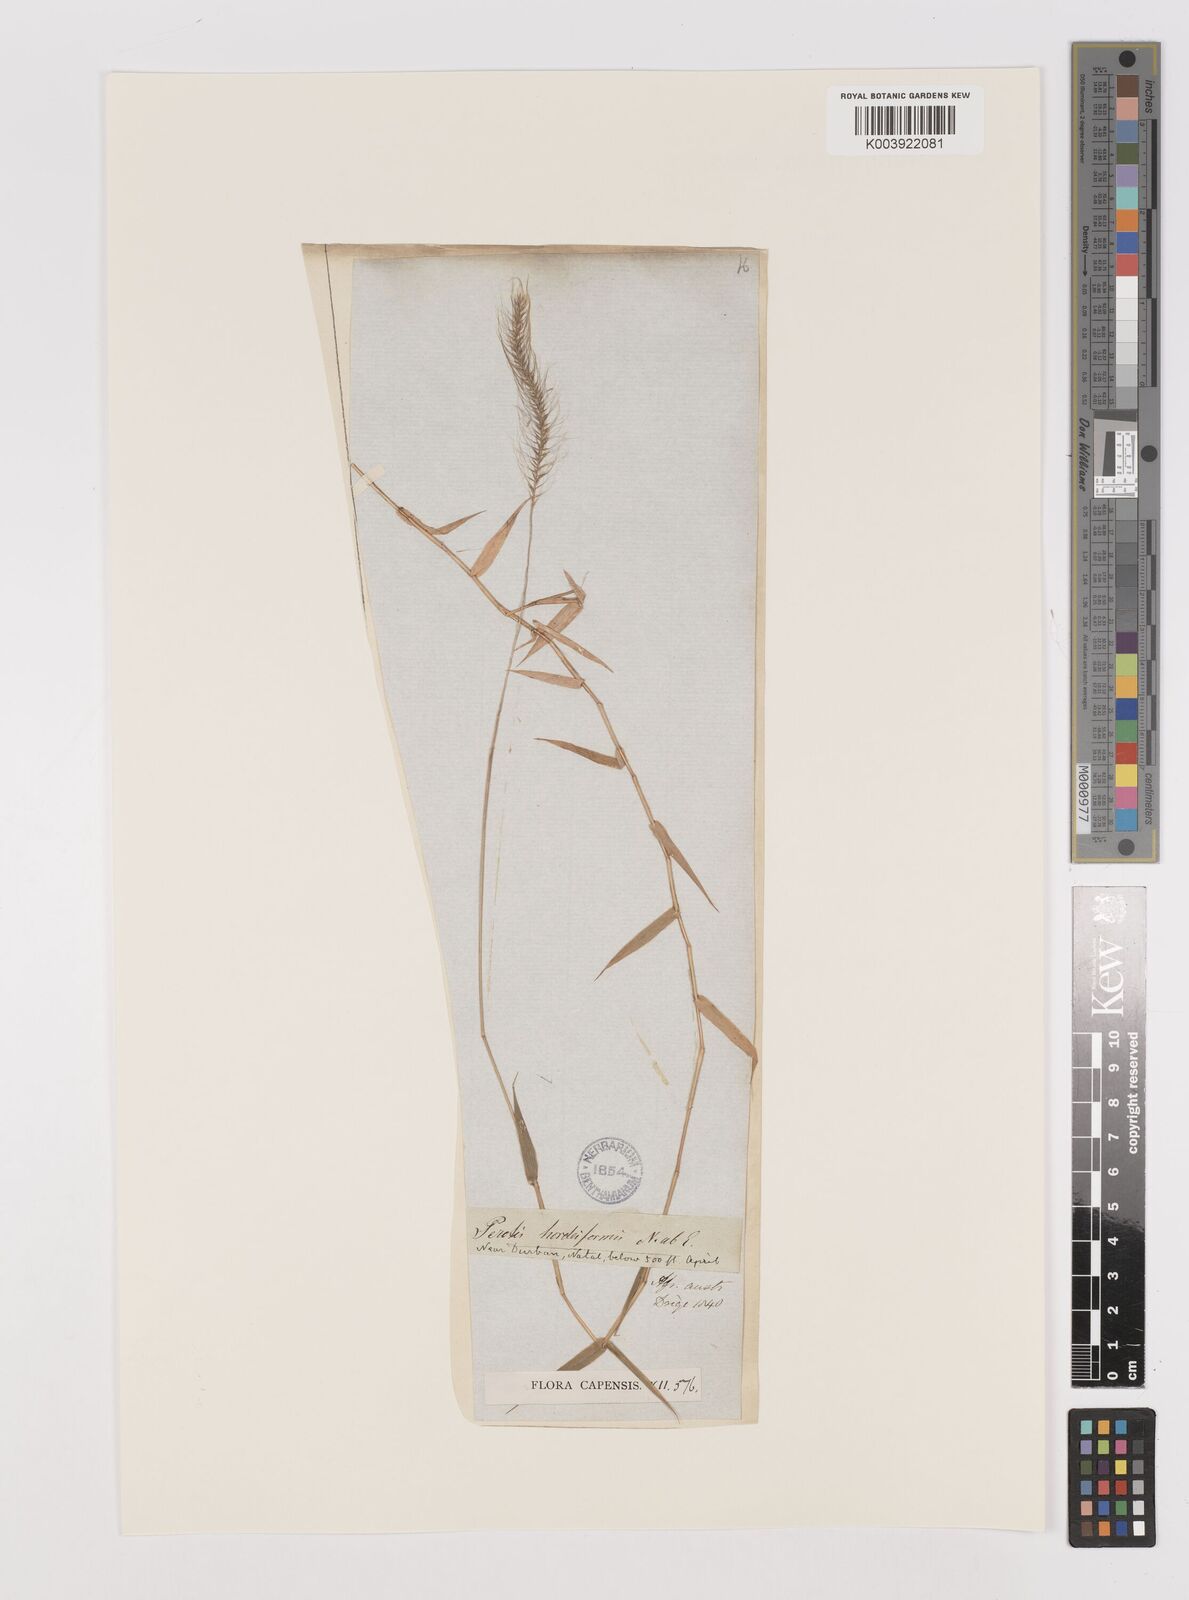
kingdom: Plantae
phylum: Tracheophyta
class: Liliopsida
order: Poales
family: Poaceae
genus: Perotis
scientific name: Perotis patens
